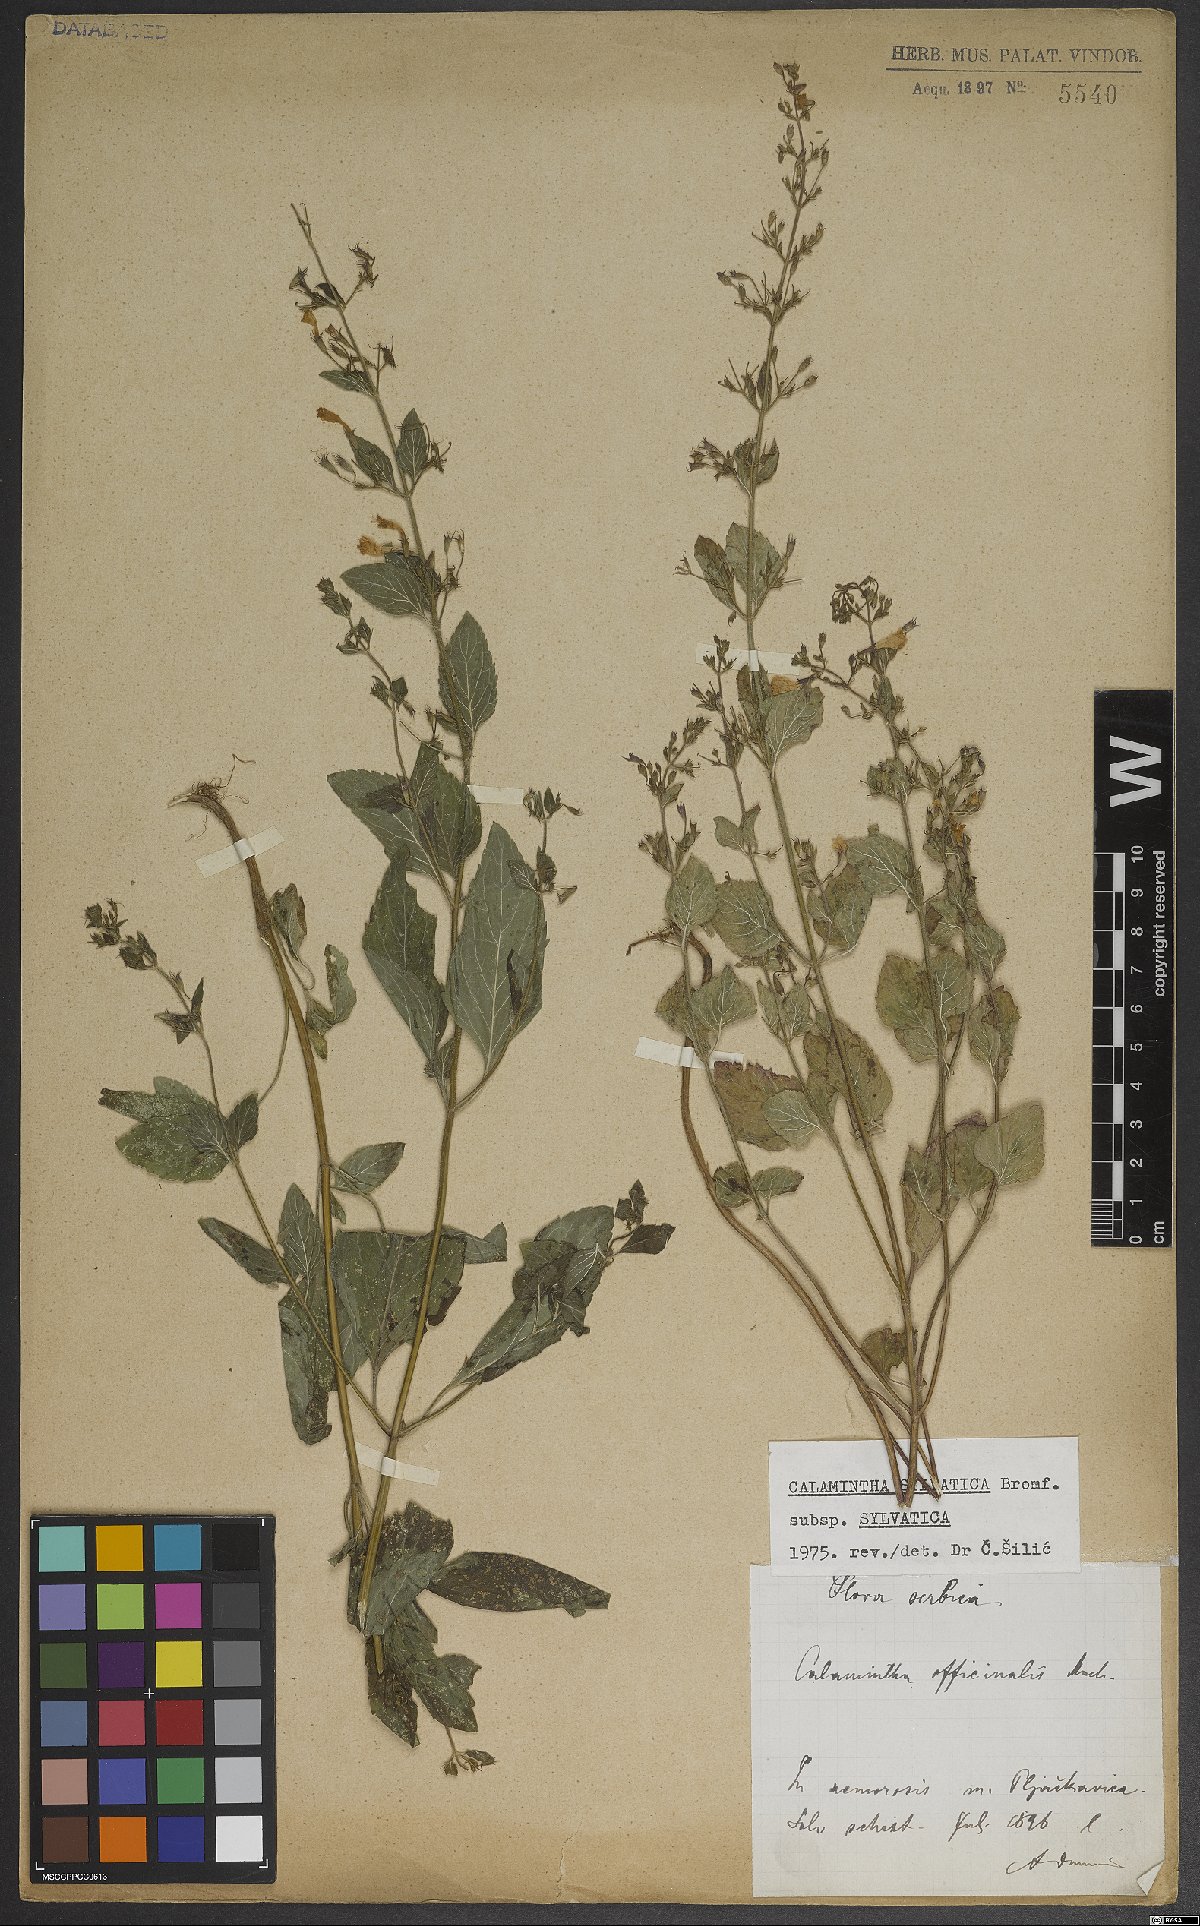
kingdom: Plantae
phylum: Tracheophyta
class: Magnoliopsida
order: Lamiales
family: Lamiaceae
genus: Clinopodium
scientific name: Clinopodium menthifolium
